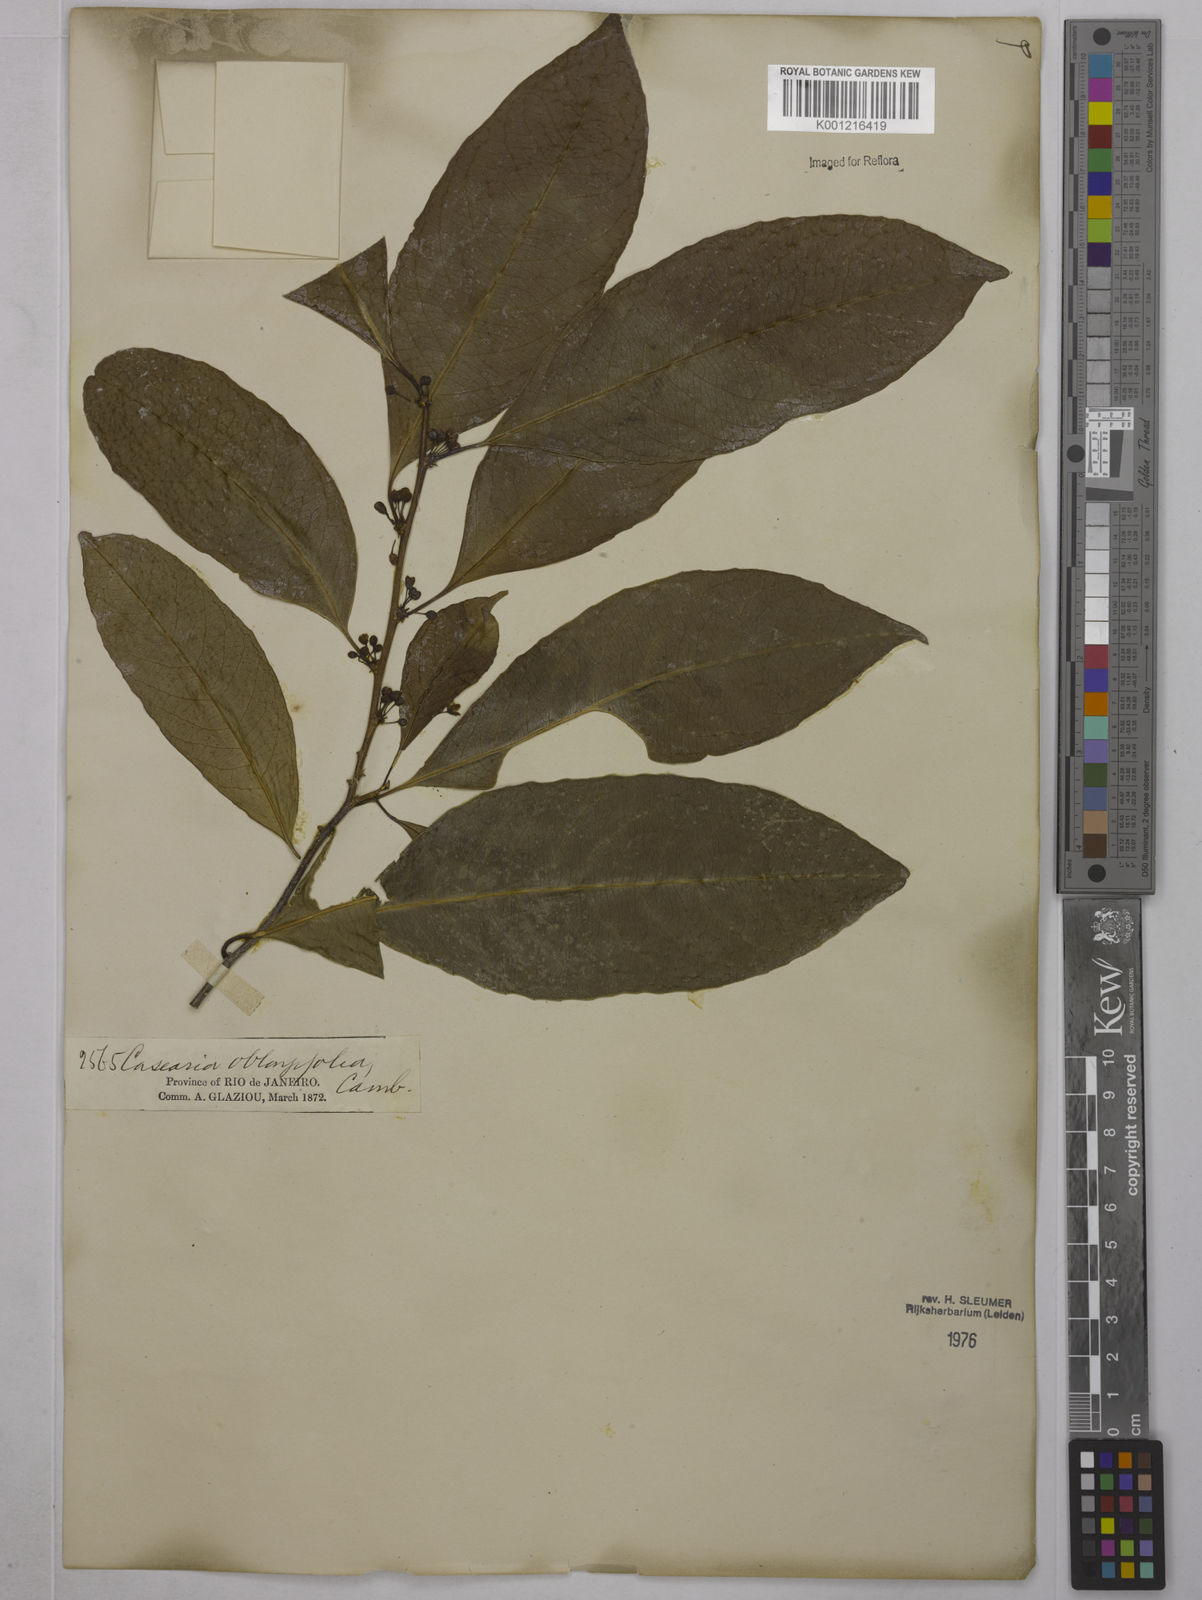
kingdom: Plantae
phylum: Tracheophyta
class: Magnoliopsida
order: Malpighiales
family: Salicaceae
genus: Casearia
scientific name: Casearia oblongifolia
